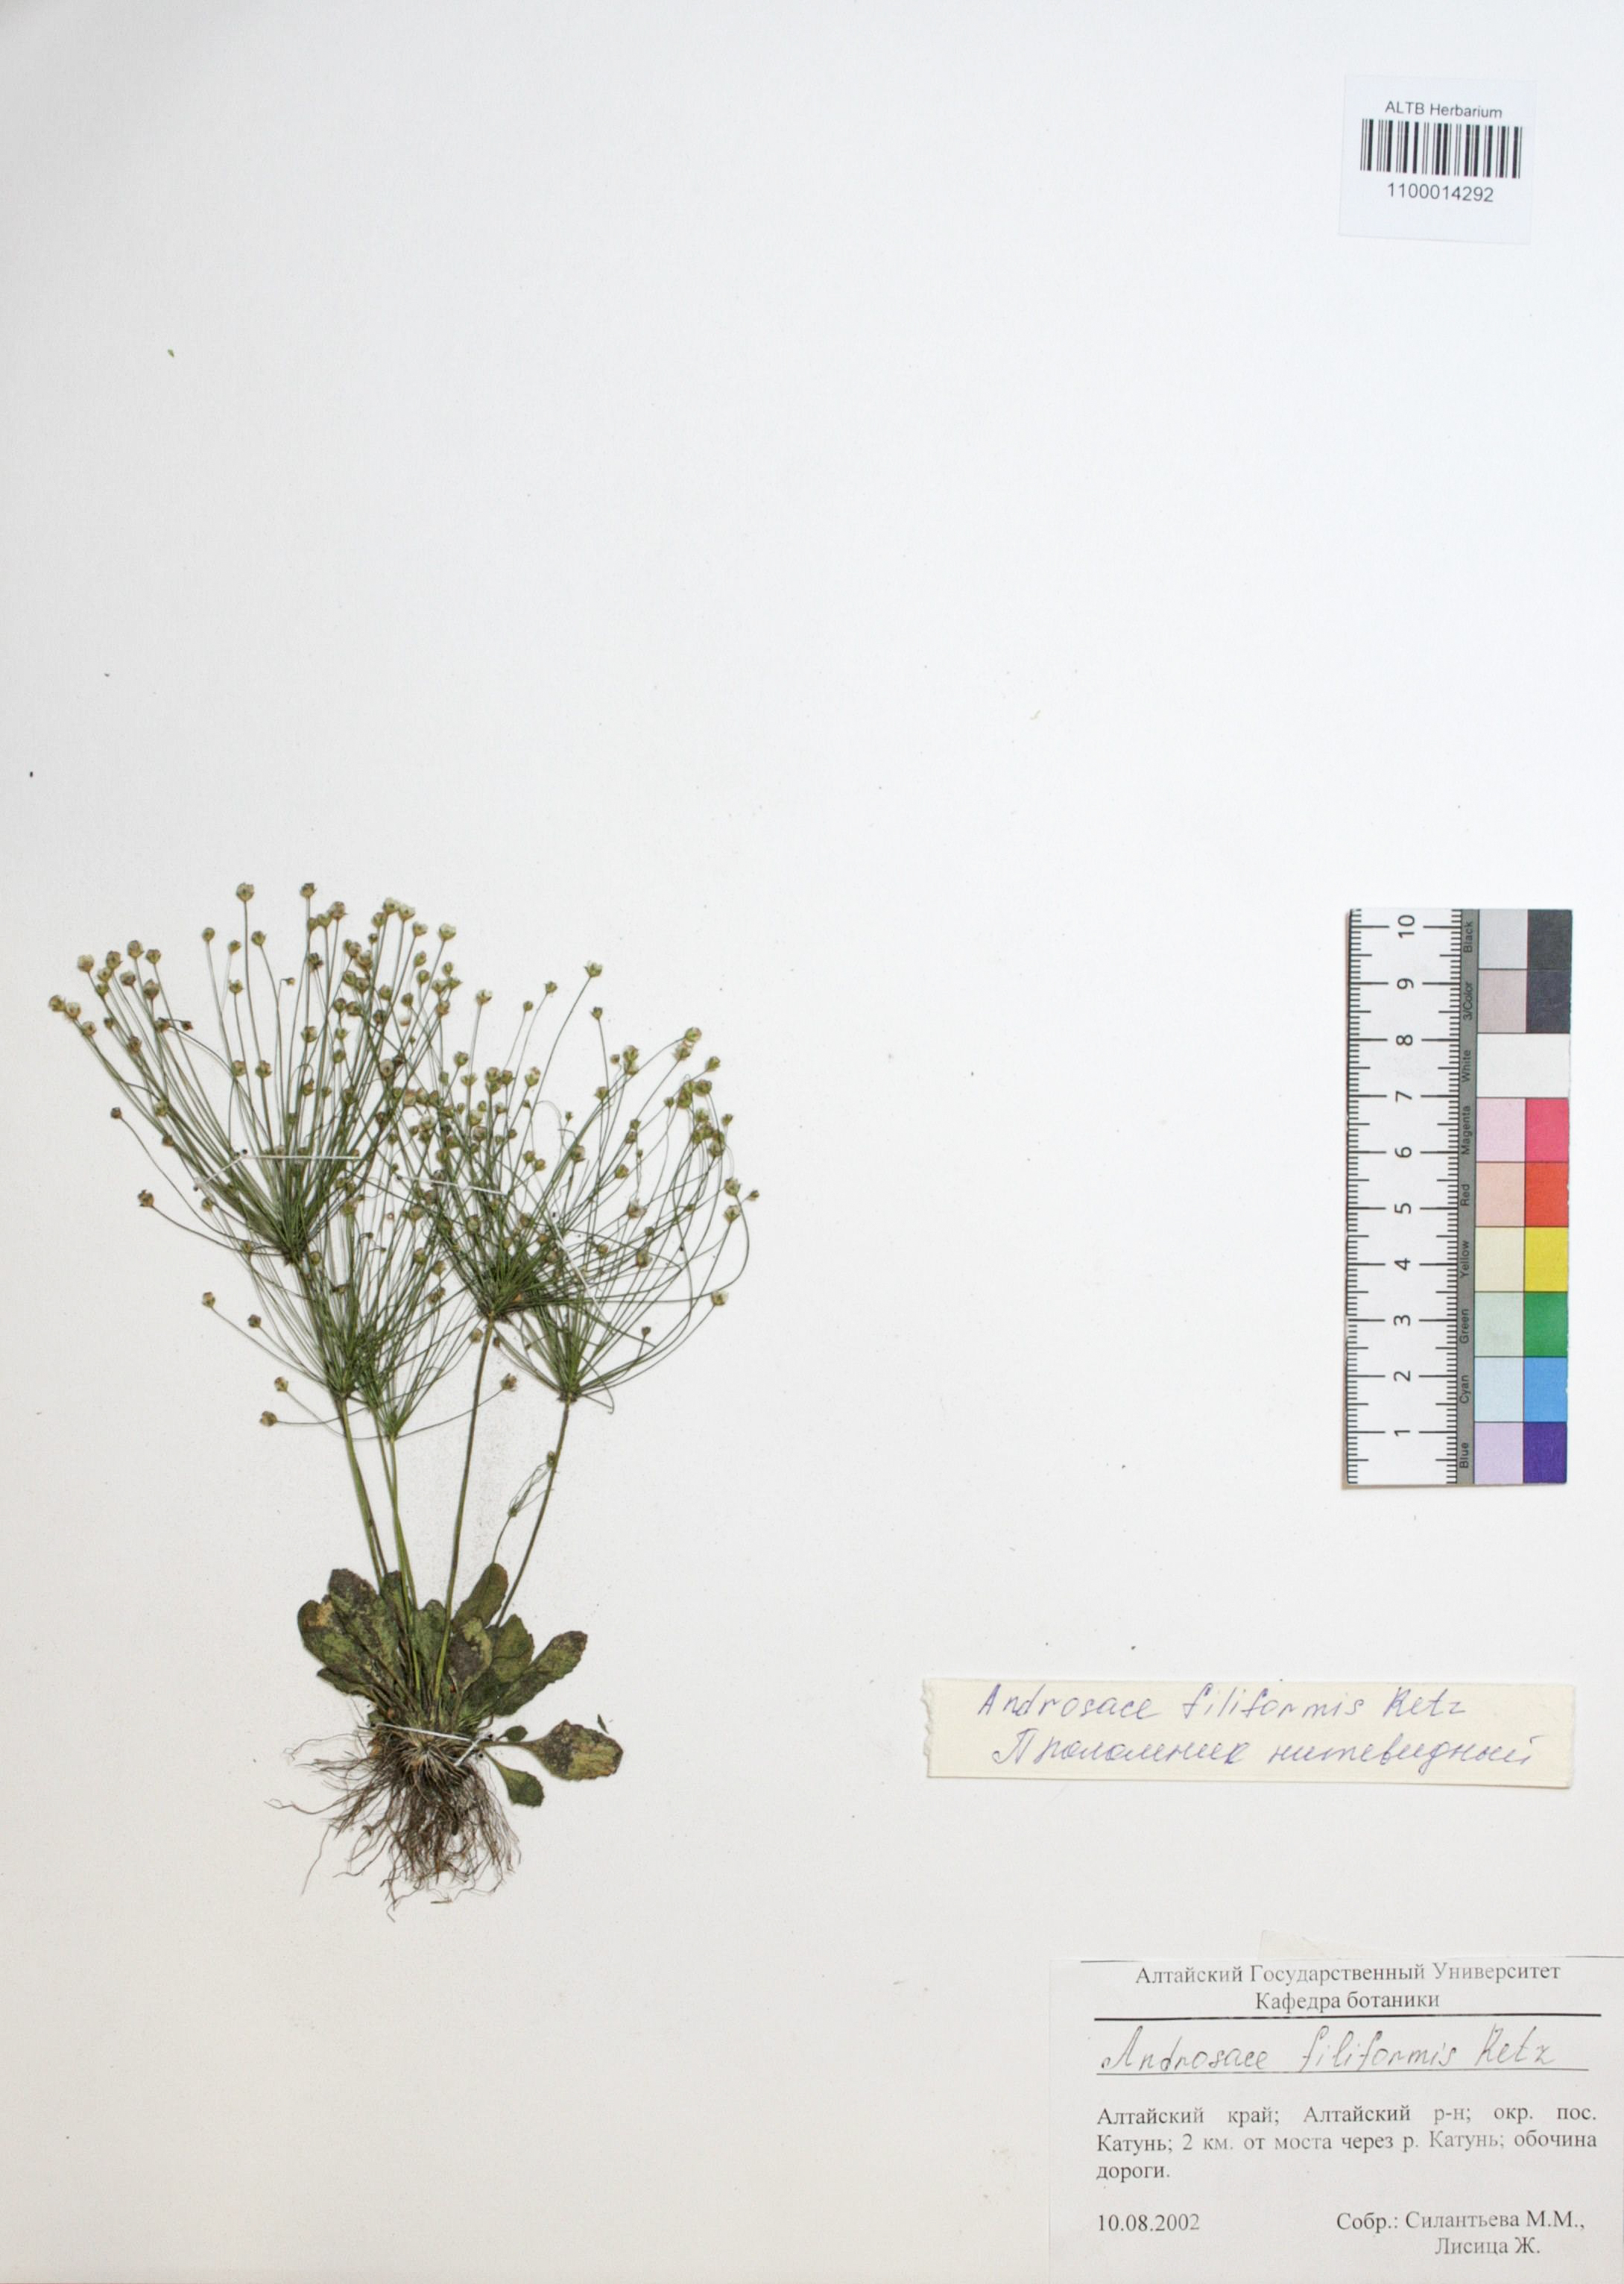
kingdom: Plantae
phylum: Tracheophyta
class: Magnoliopsida
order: Ericales
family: Primulaceae
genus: Androsace
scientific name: Androsace filiformis
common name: Filiform rock jasmine
